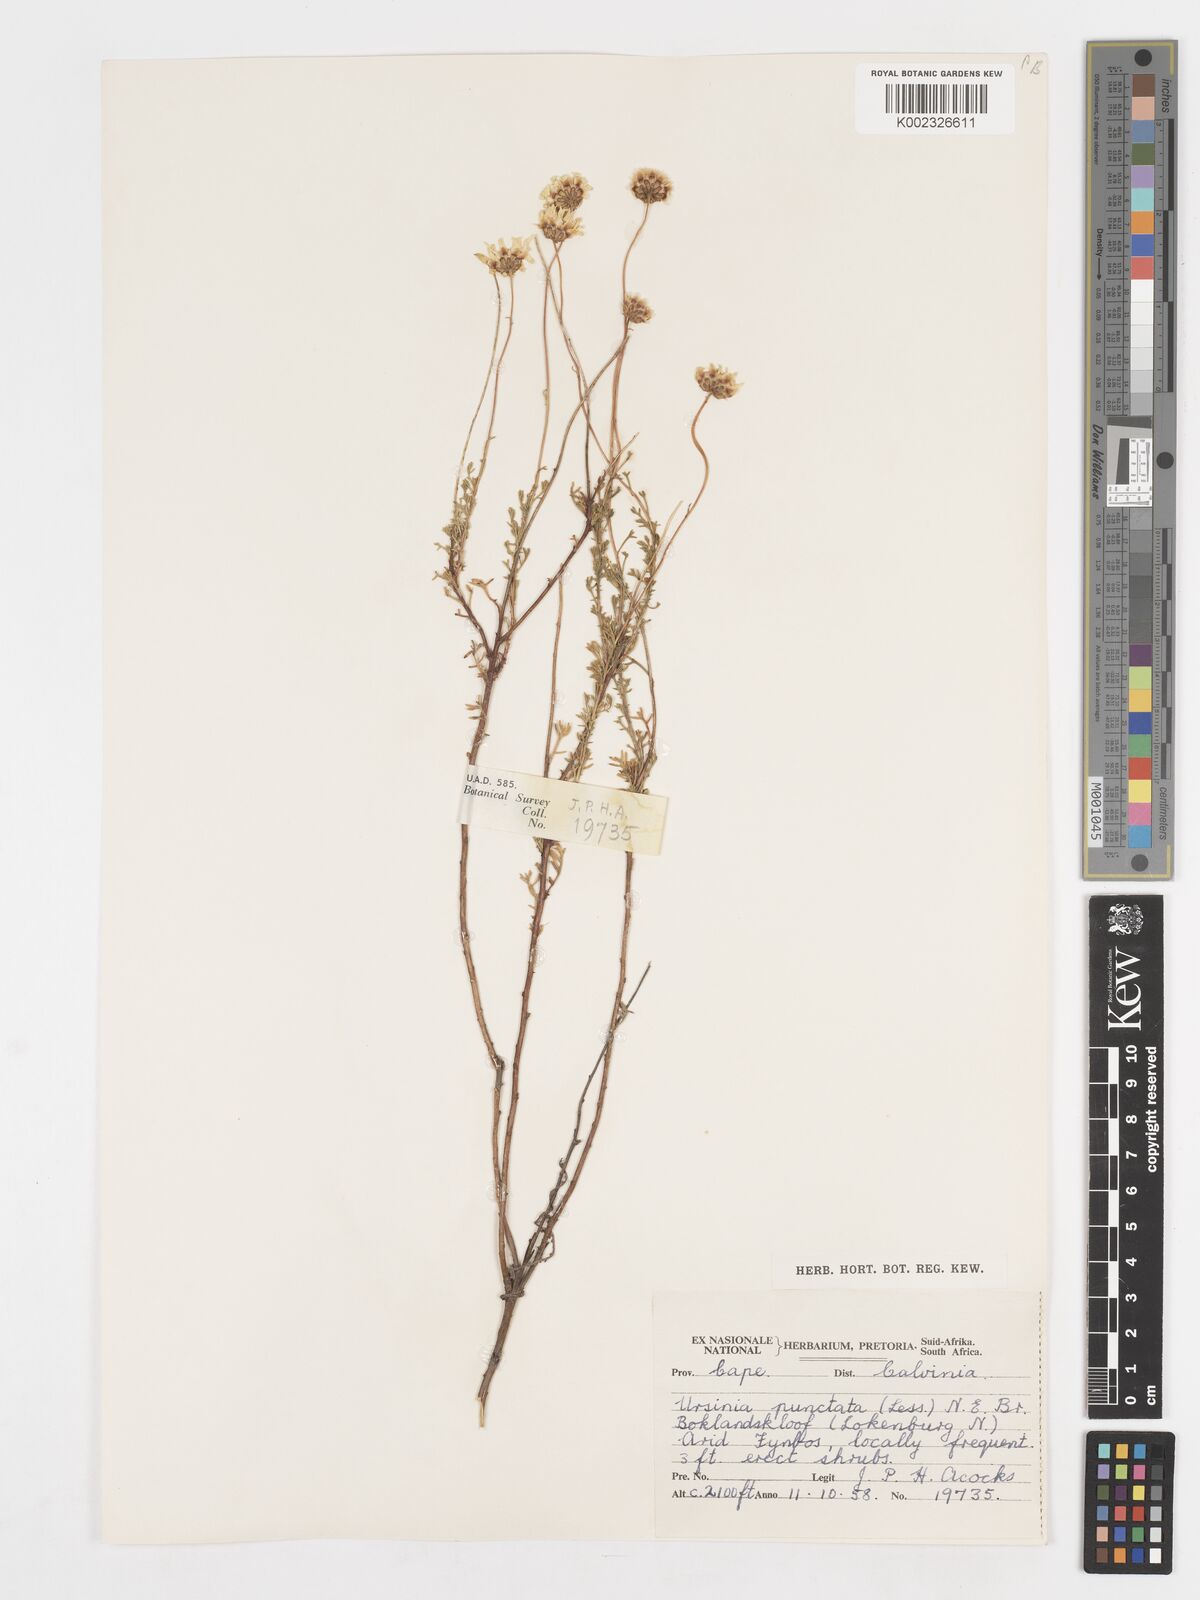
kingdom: Plantae
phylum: Tracheophyta
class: Magnoliopsida
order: Asterales
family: Asteraceae
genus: Ursinia
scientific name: Ursinia punctata
